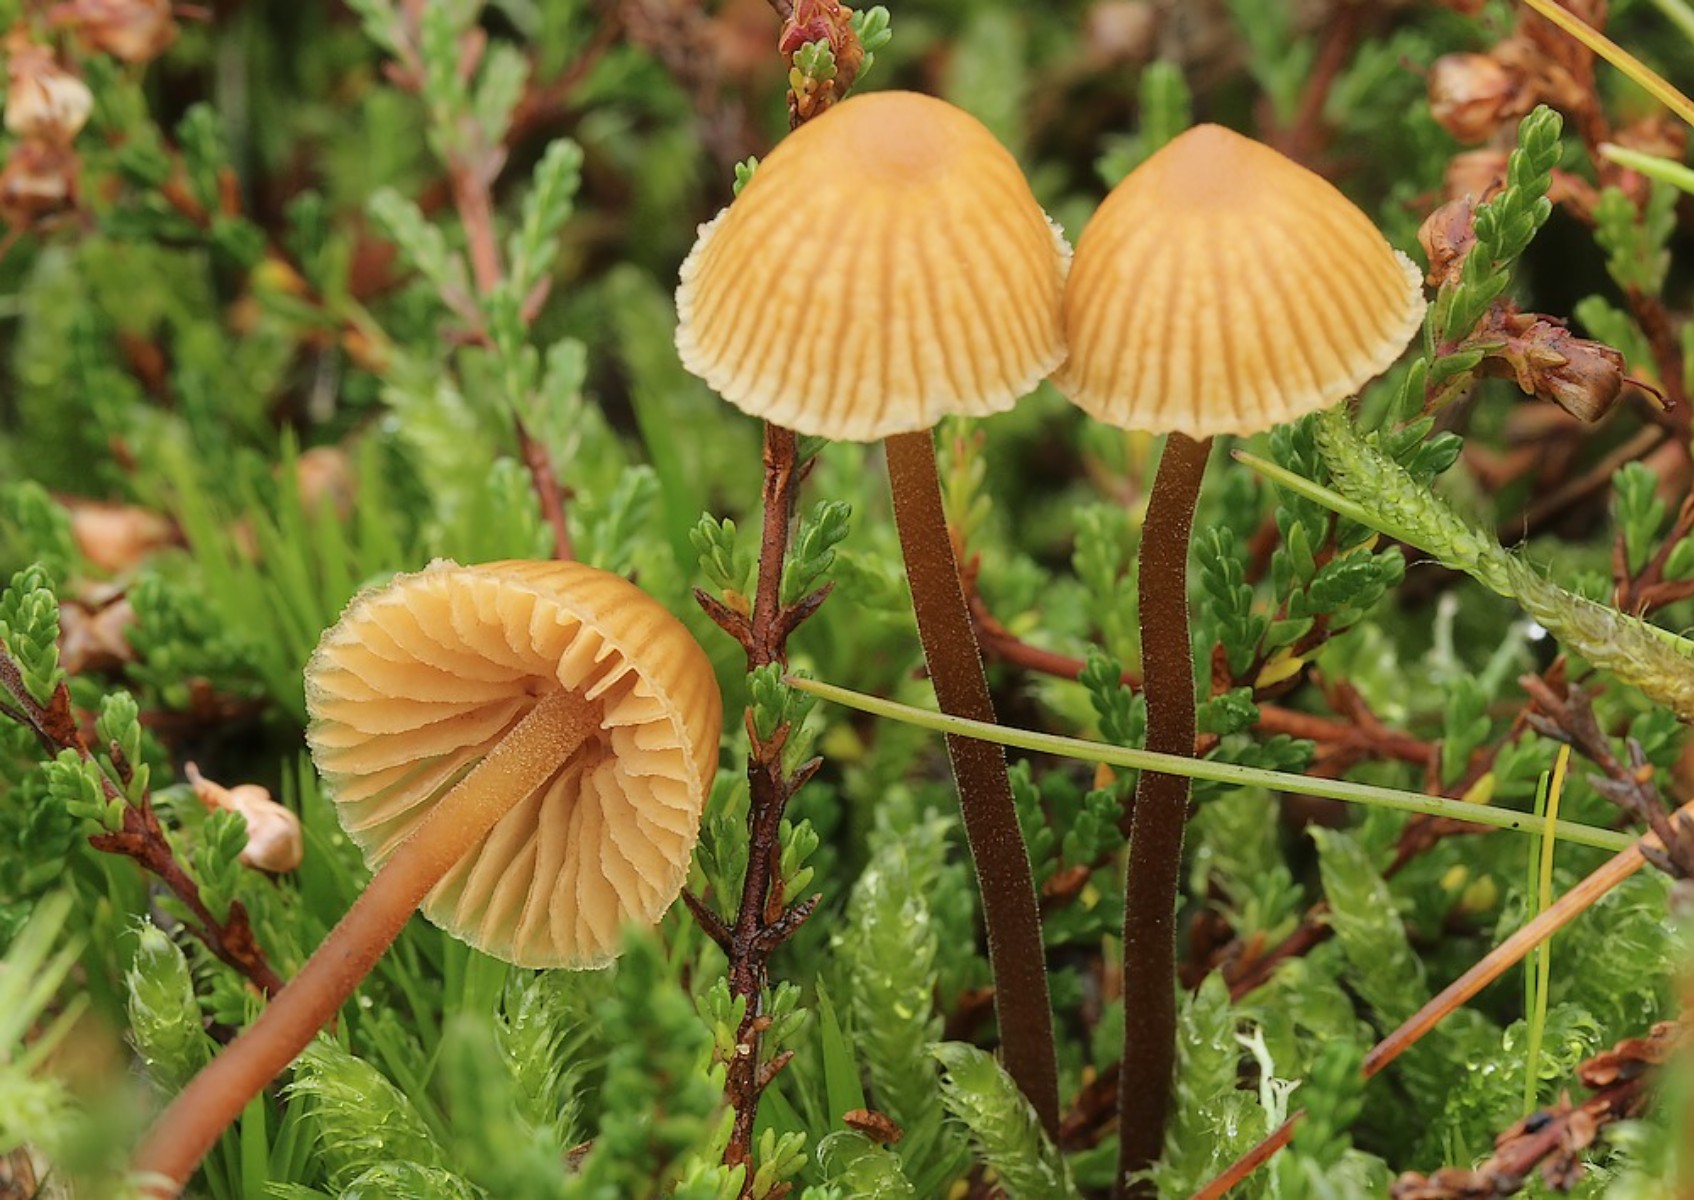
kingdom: Fungi
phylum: Basidiomycota
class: Agaricomycetes
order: Agaricales
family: Hymenogastraceae
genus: Galerina
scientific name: Galerina vittiformis
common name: Hairy leg bell
